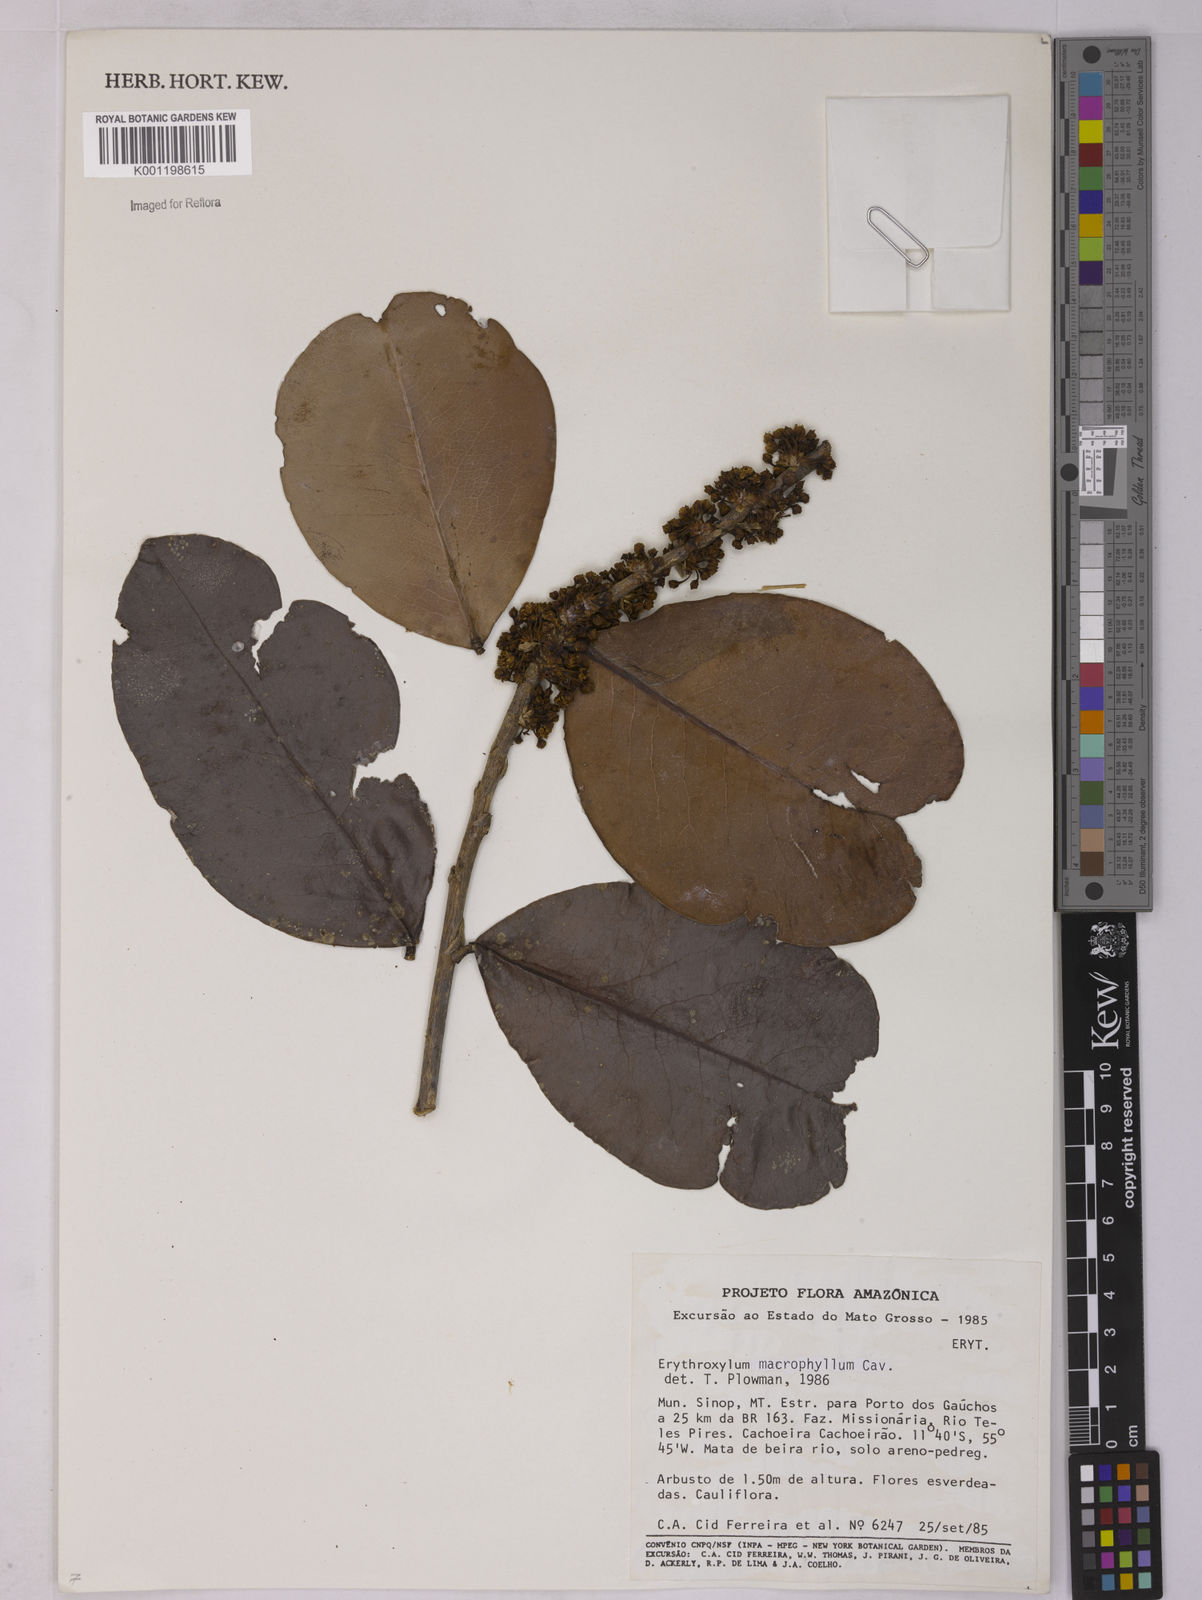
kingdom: Plantae
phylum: Tracheophyta
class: Magnoliopsida
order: Malpighiales
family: Erythroxylaceae
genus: Erythroxylum
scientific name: Erythroxylum macrophyllum
